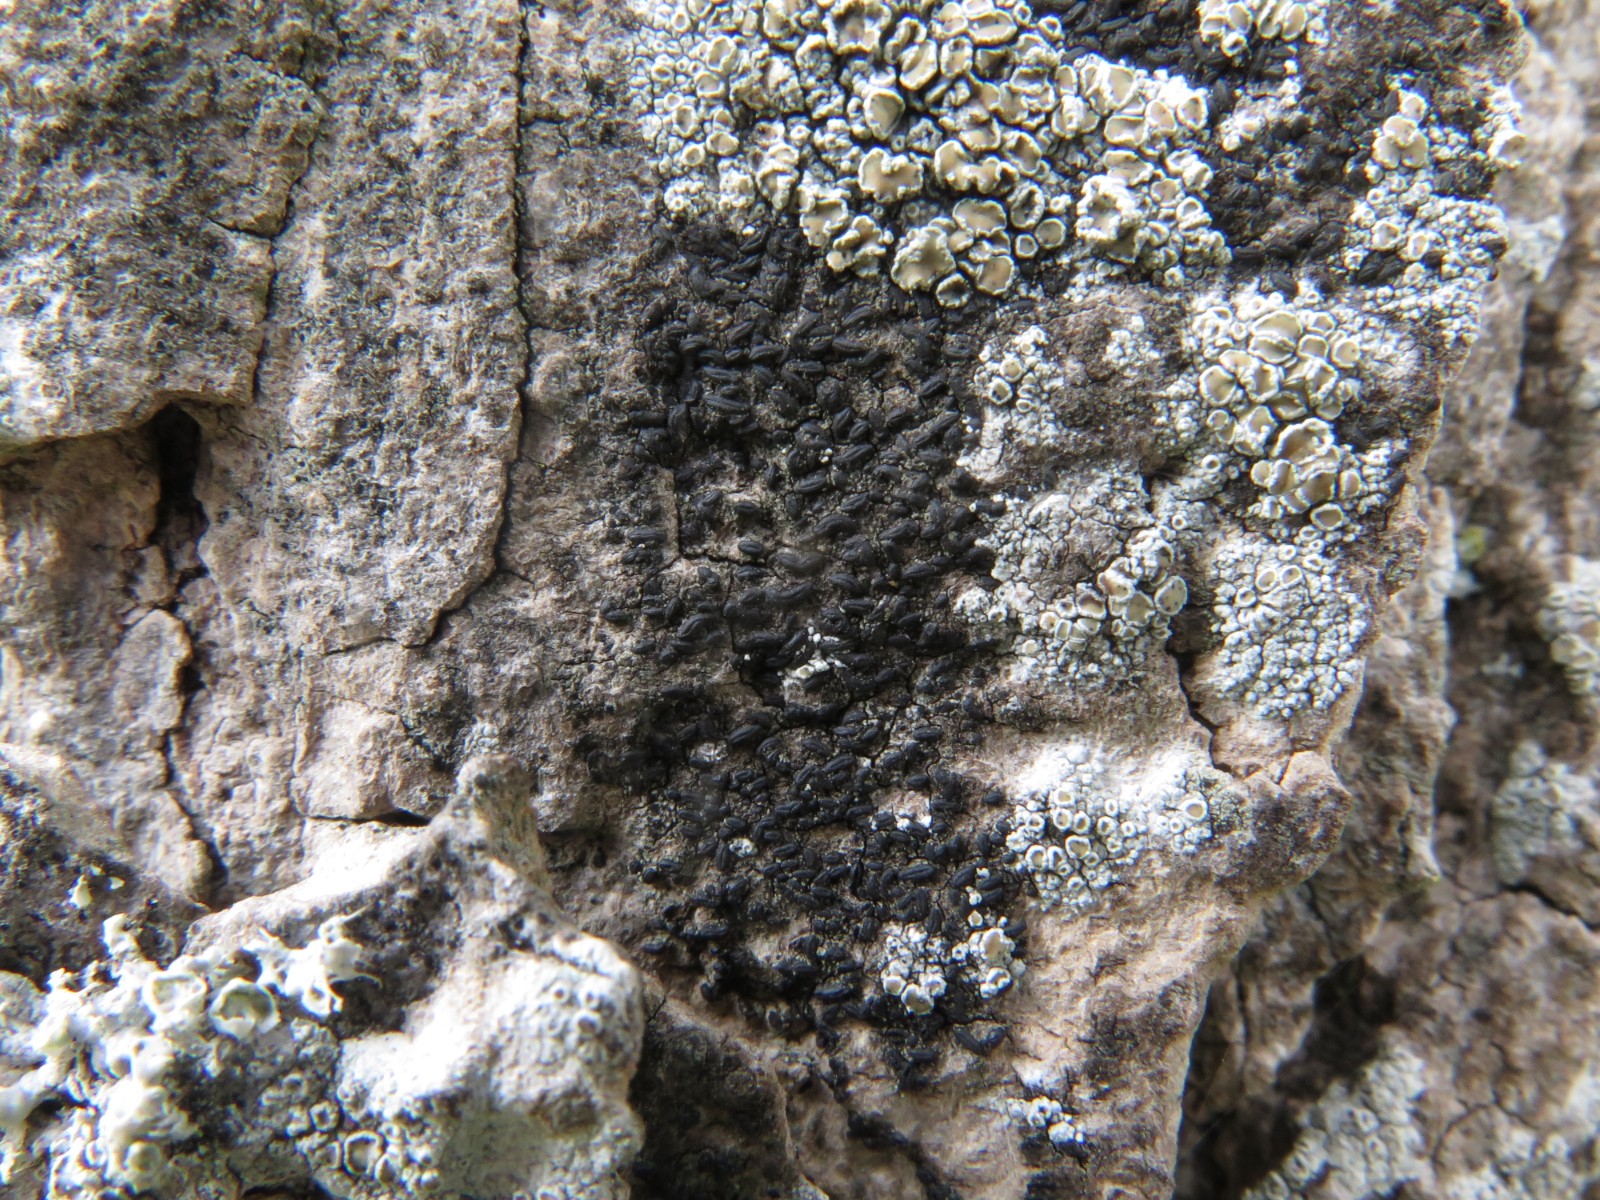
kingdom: Fungi
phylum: Ascomycota
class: Dothideomycetes
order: Hysteriales
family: Hysteriaceae
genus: Hysterium
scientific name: Hysterium pulicare
